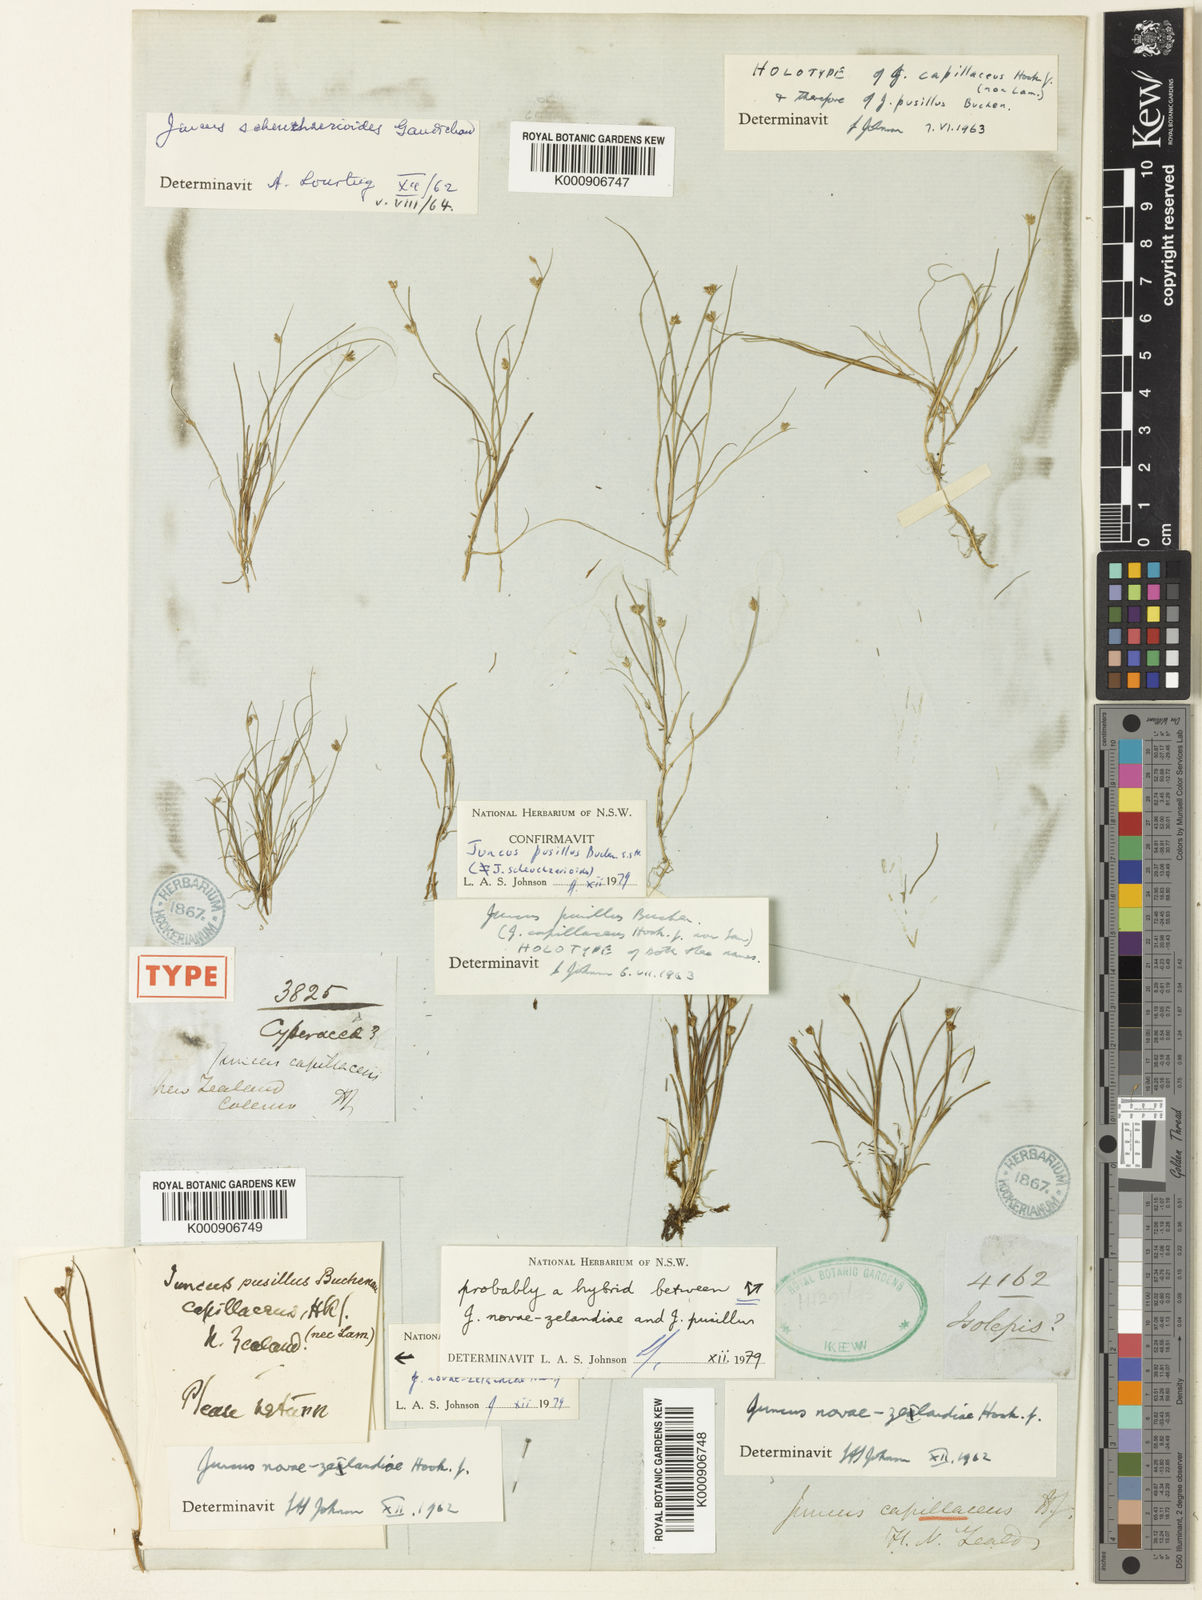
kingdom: Plantae
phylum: Tracheophyta
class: Liliopsida
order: Poales
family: Juncaceae
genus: Juncus
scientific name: Juncus pusillus
